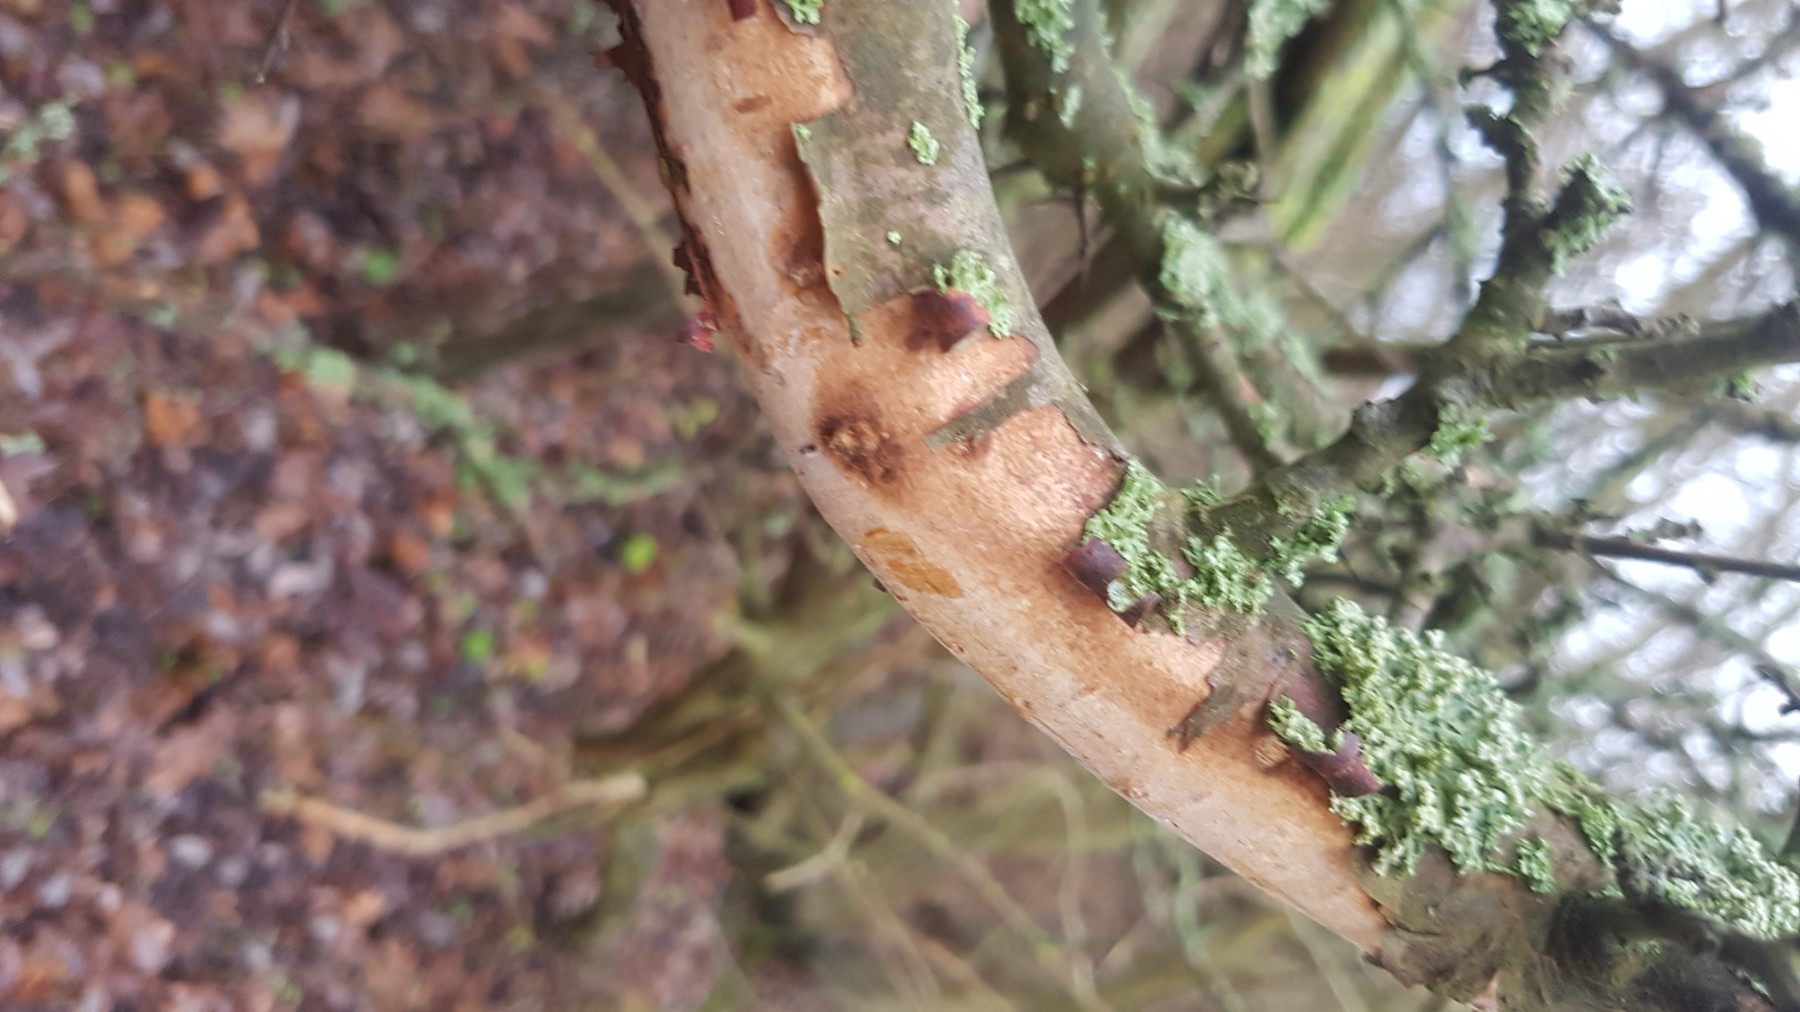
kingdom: Fungi
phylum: Basidiomycota
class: Agaricomycetes
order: Corticiales
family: Vuilleminiaceae
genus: Vuilleminia
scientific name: Vuilleminia cystidiata
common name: tjørne-barksprænger
